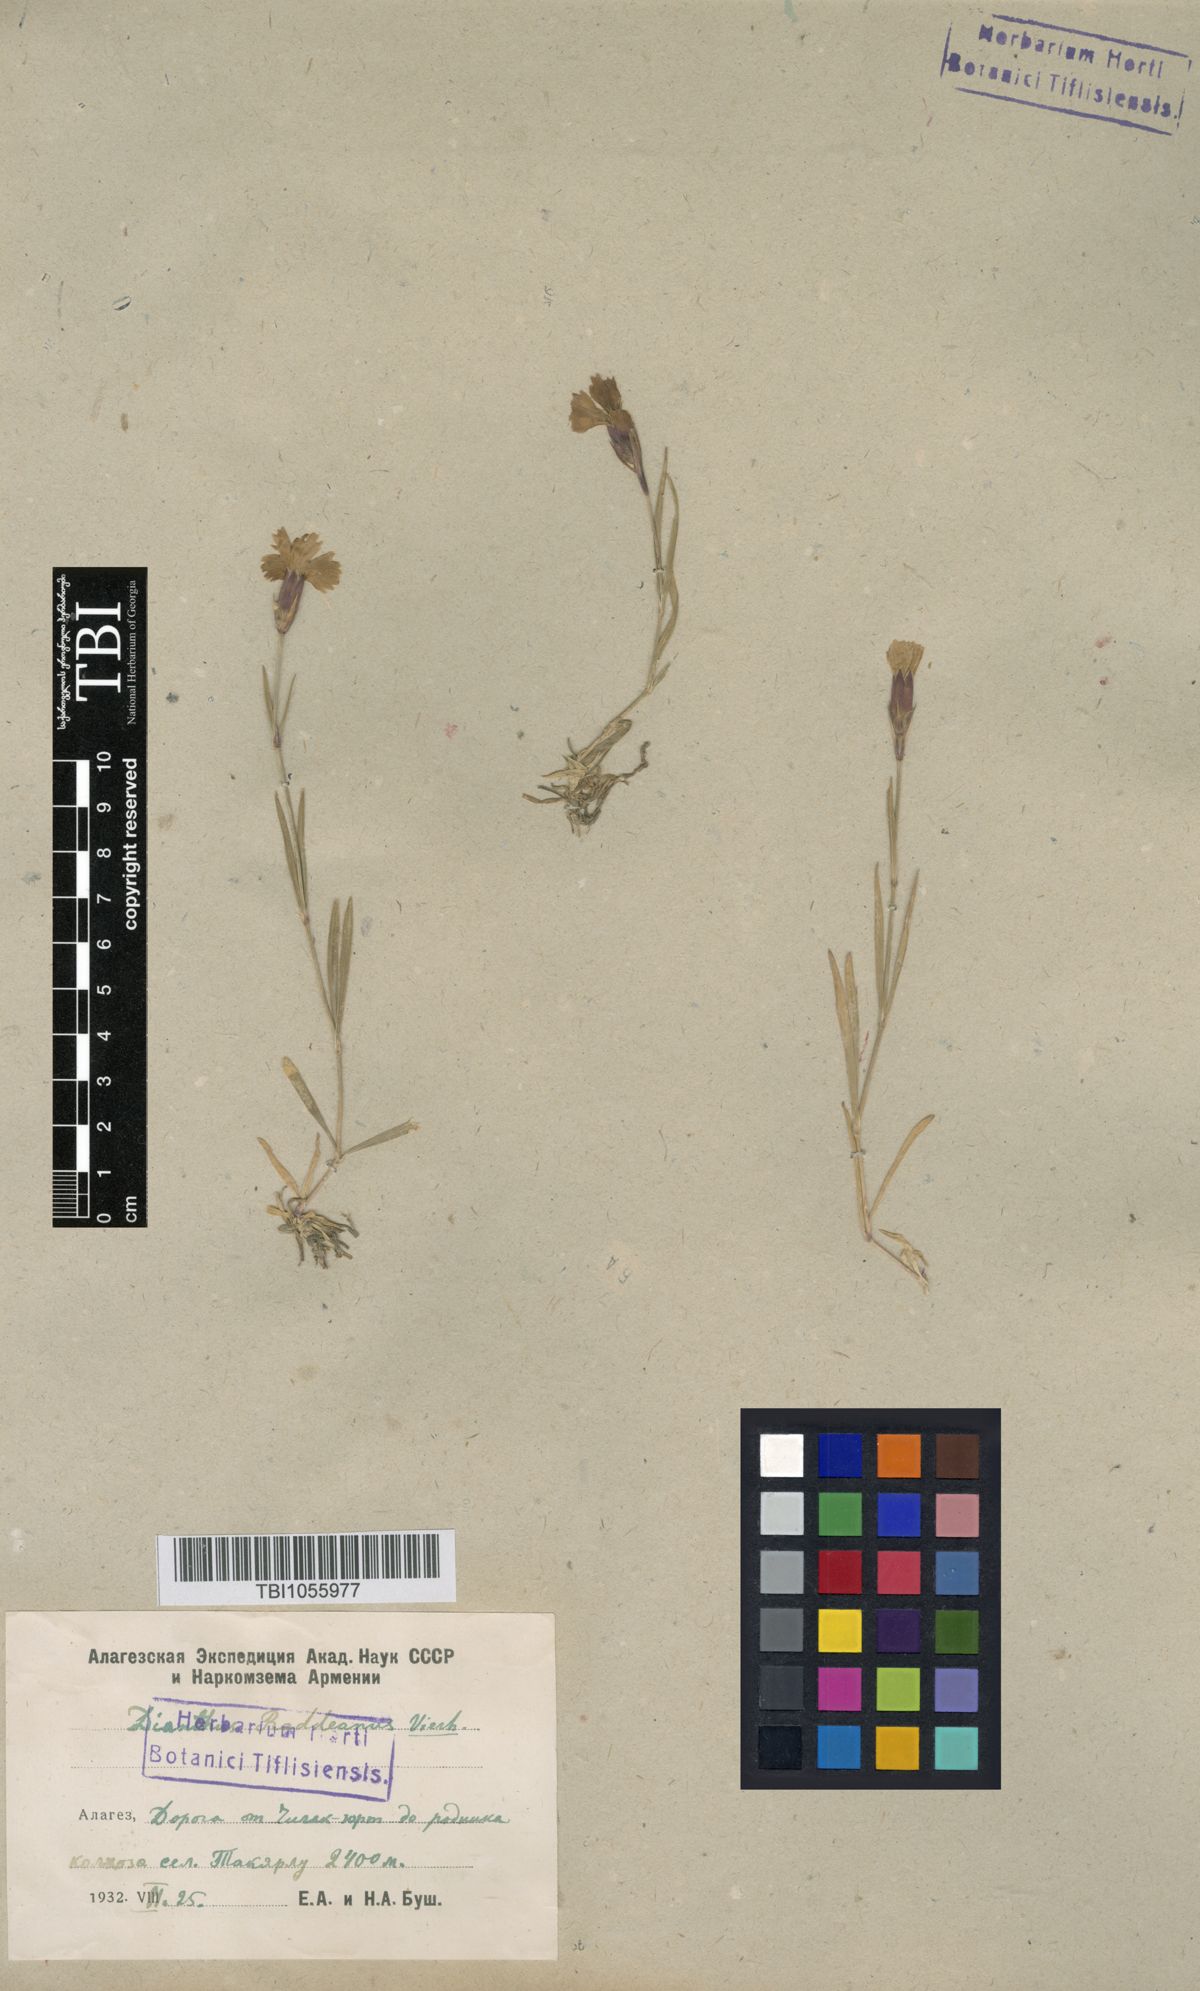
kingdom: Plantae
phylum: Tracheophyta
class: Magnoliopsida
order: Caryophyllales
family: Caryophyllaceae
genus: Dianthus
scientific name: Dianthus raddeanus
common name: Radde's pink
